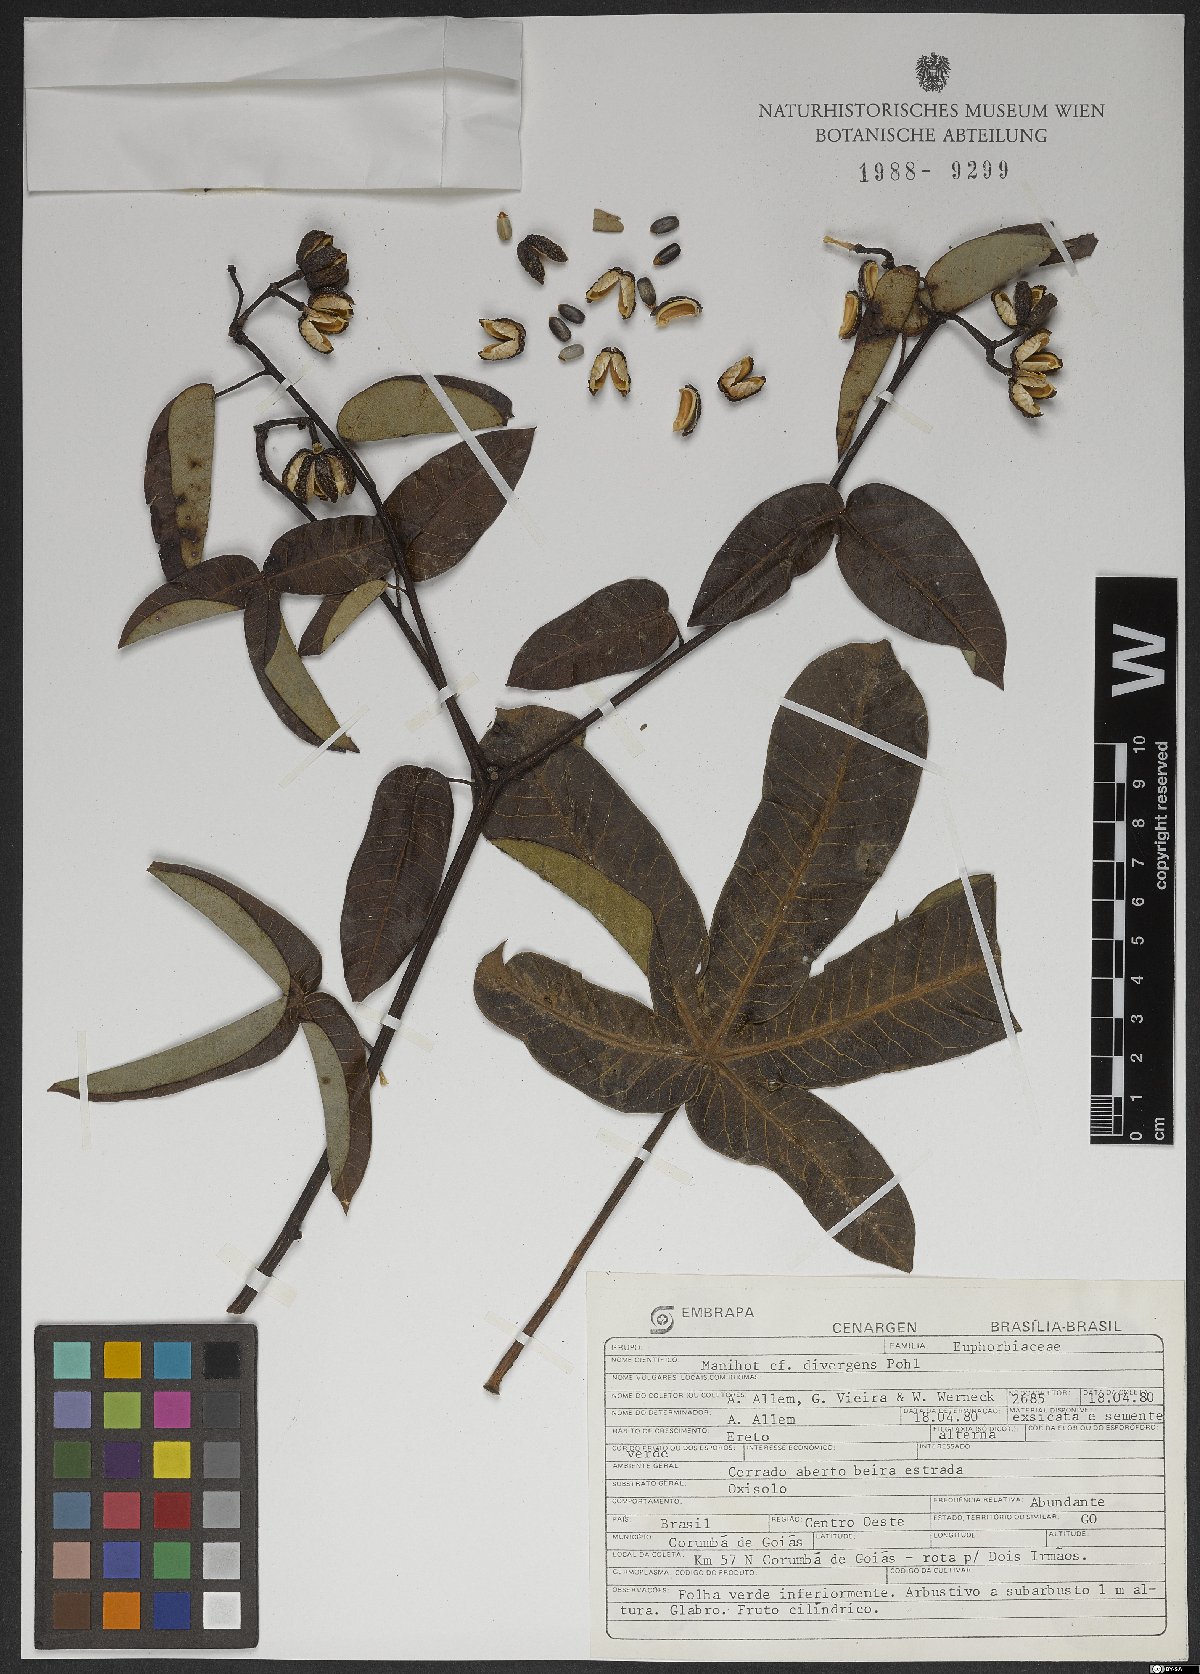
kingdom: Plantae
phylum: Tracheophyta
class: Magnoliopsida
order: Malpighiales
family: Euphorbiaceae
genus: Manihot
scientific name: Manihot divergens
